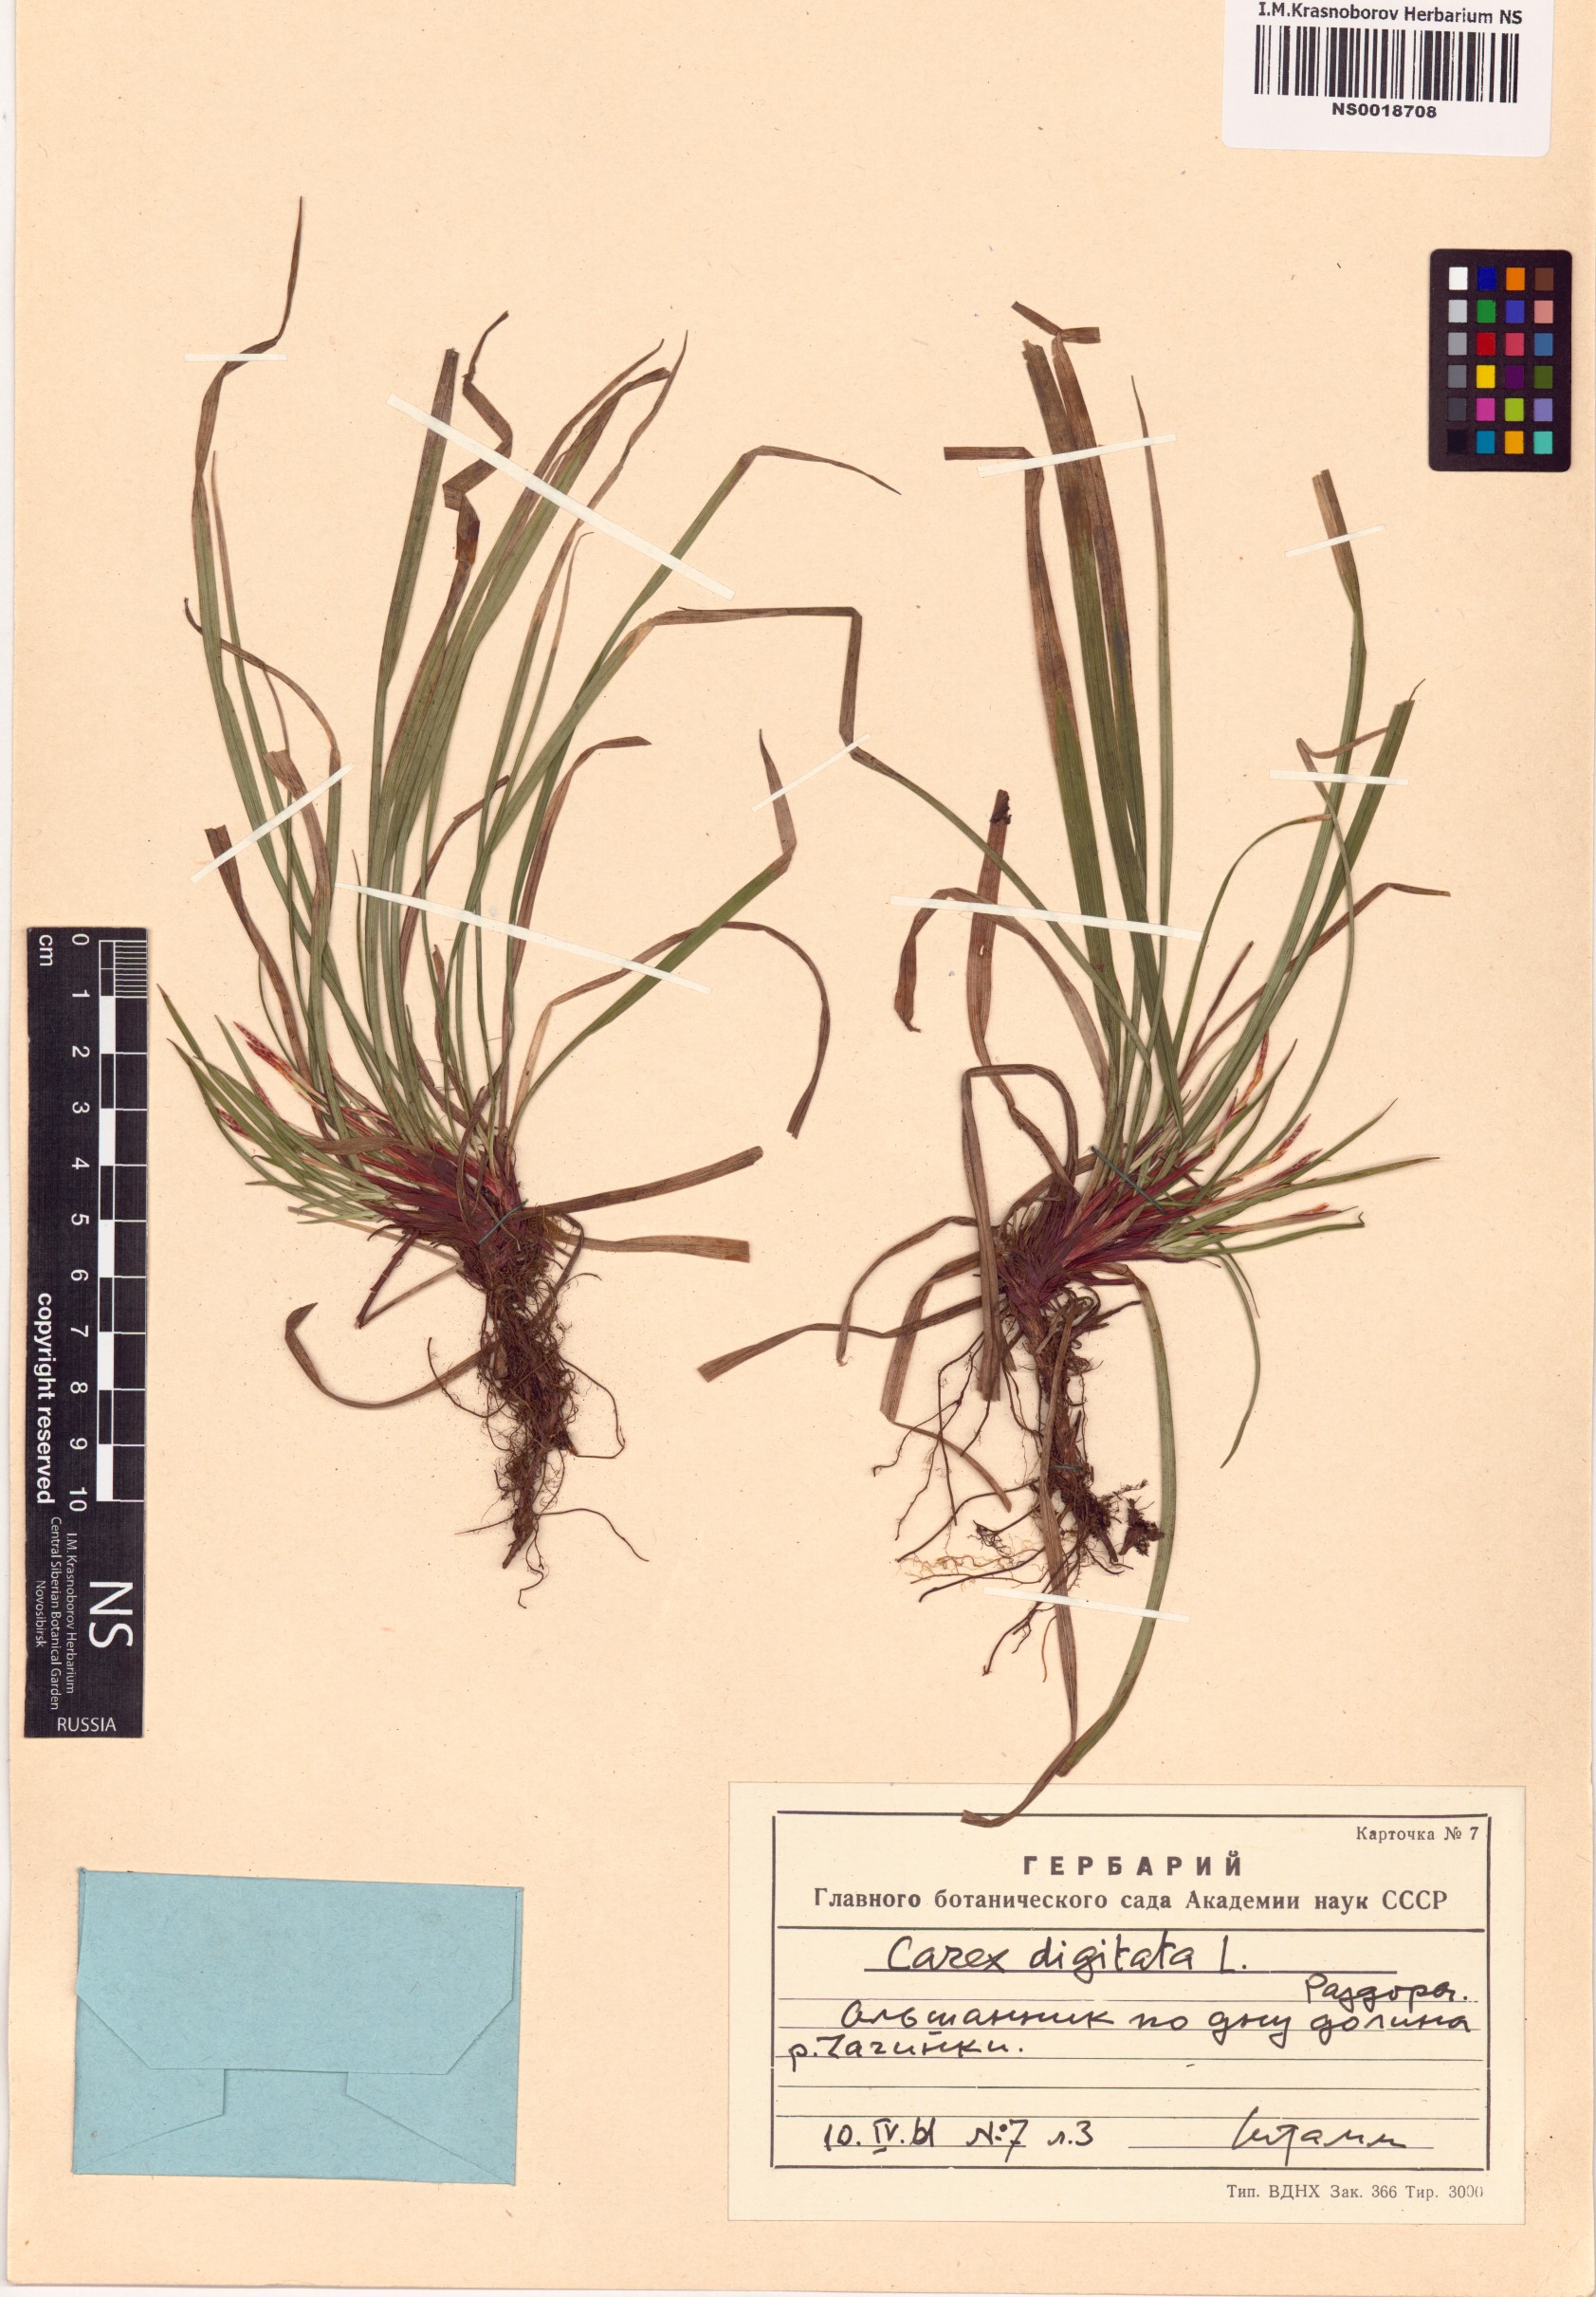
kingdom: Plantae
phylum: Tracheophyta
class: Liliopsida
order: Poales
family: Cyperaceae
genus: Carex
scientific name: Carex digitata
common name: Fingered sedge
